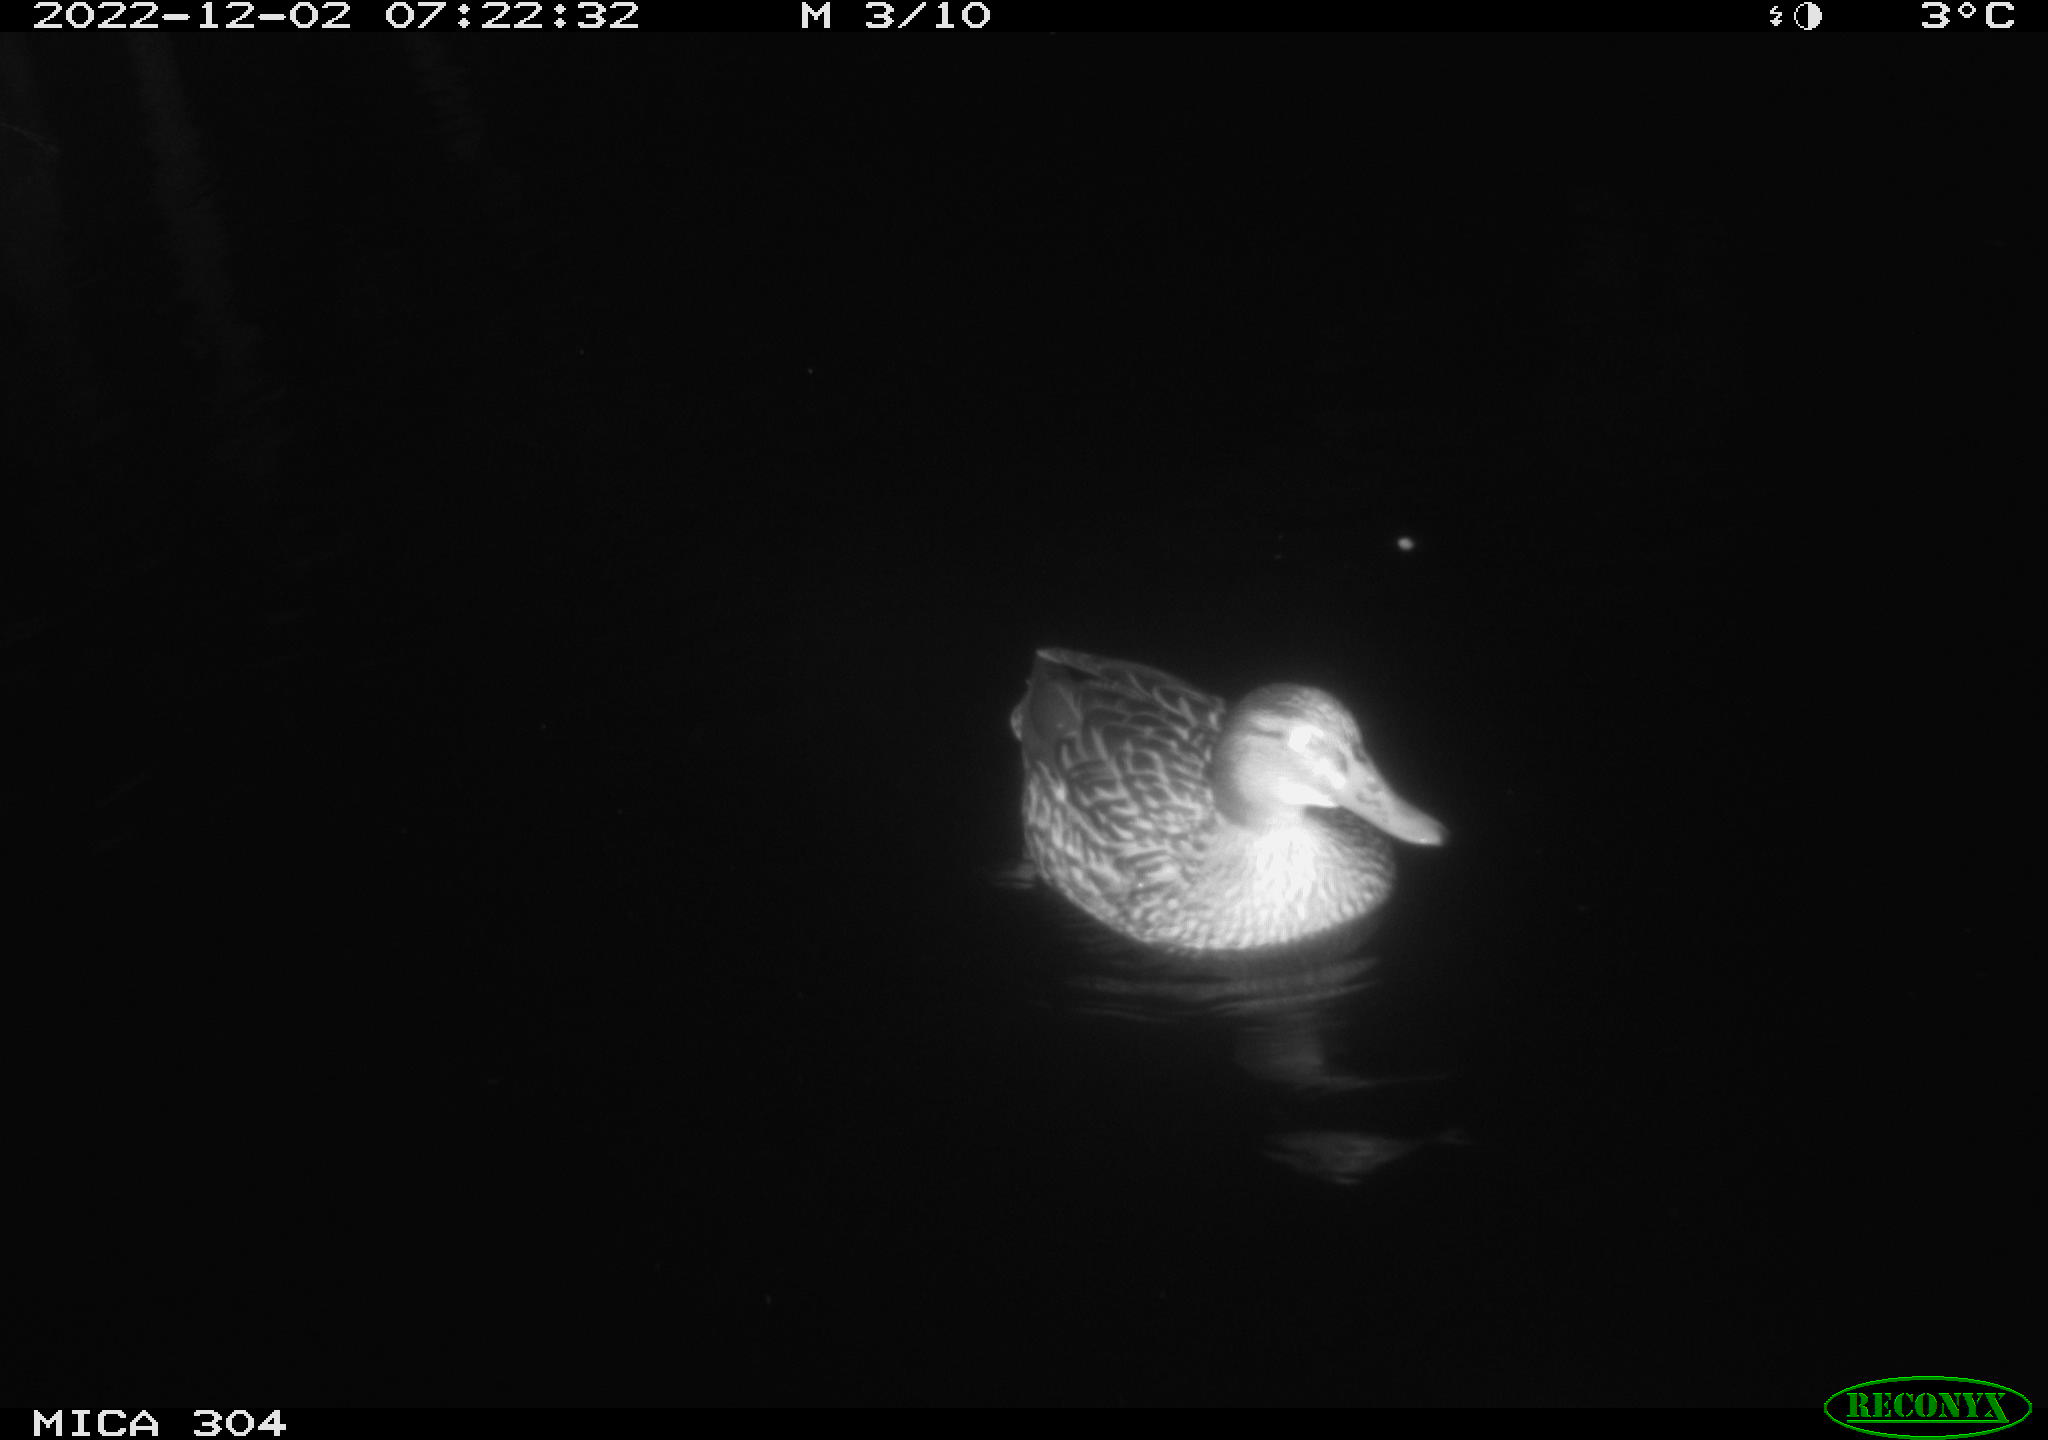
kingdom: Animalia
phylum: Chordata
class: Aves
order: Anseriformes
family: Anatidae
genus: Anas
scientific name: Anas
